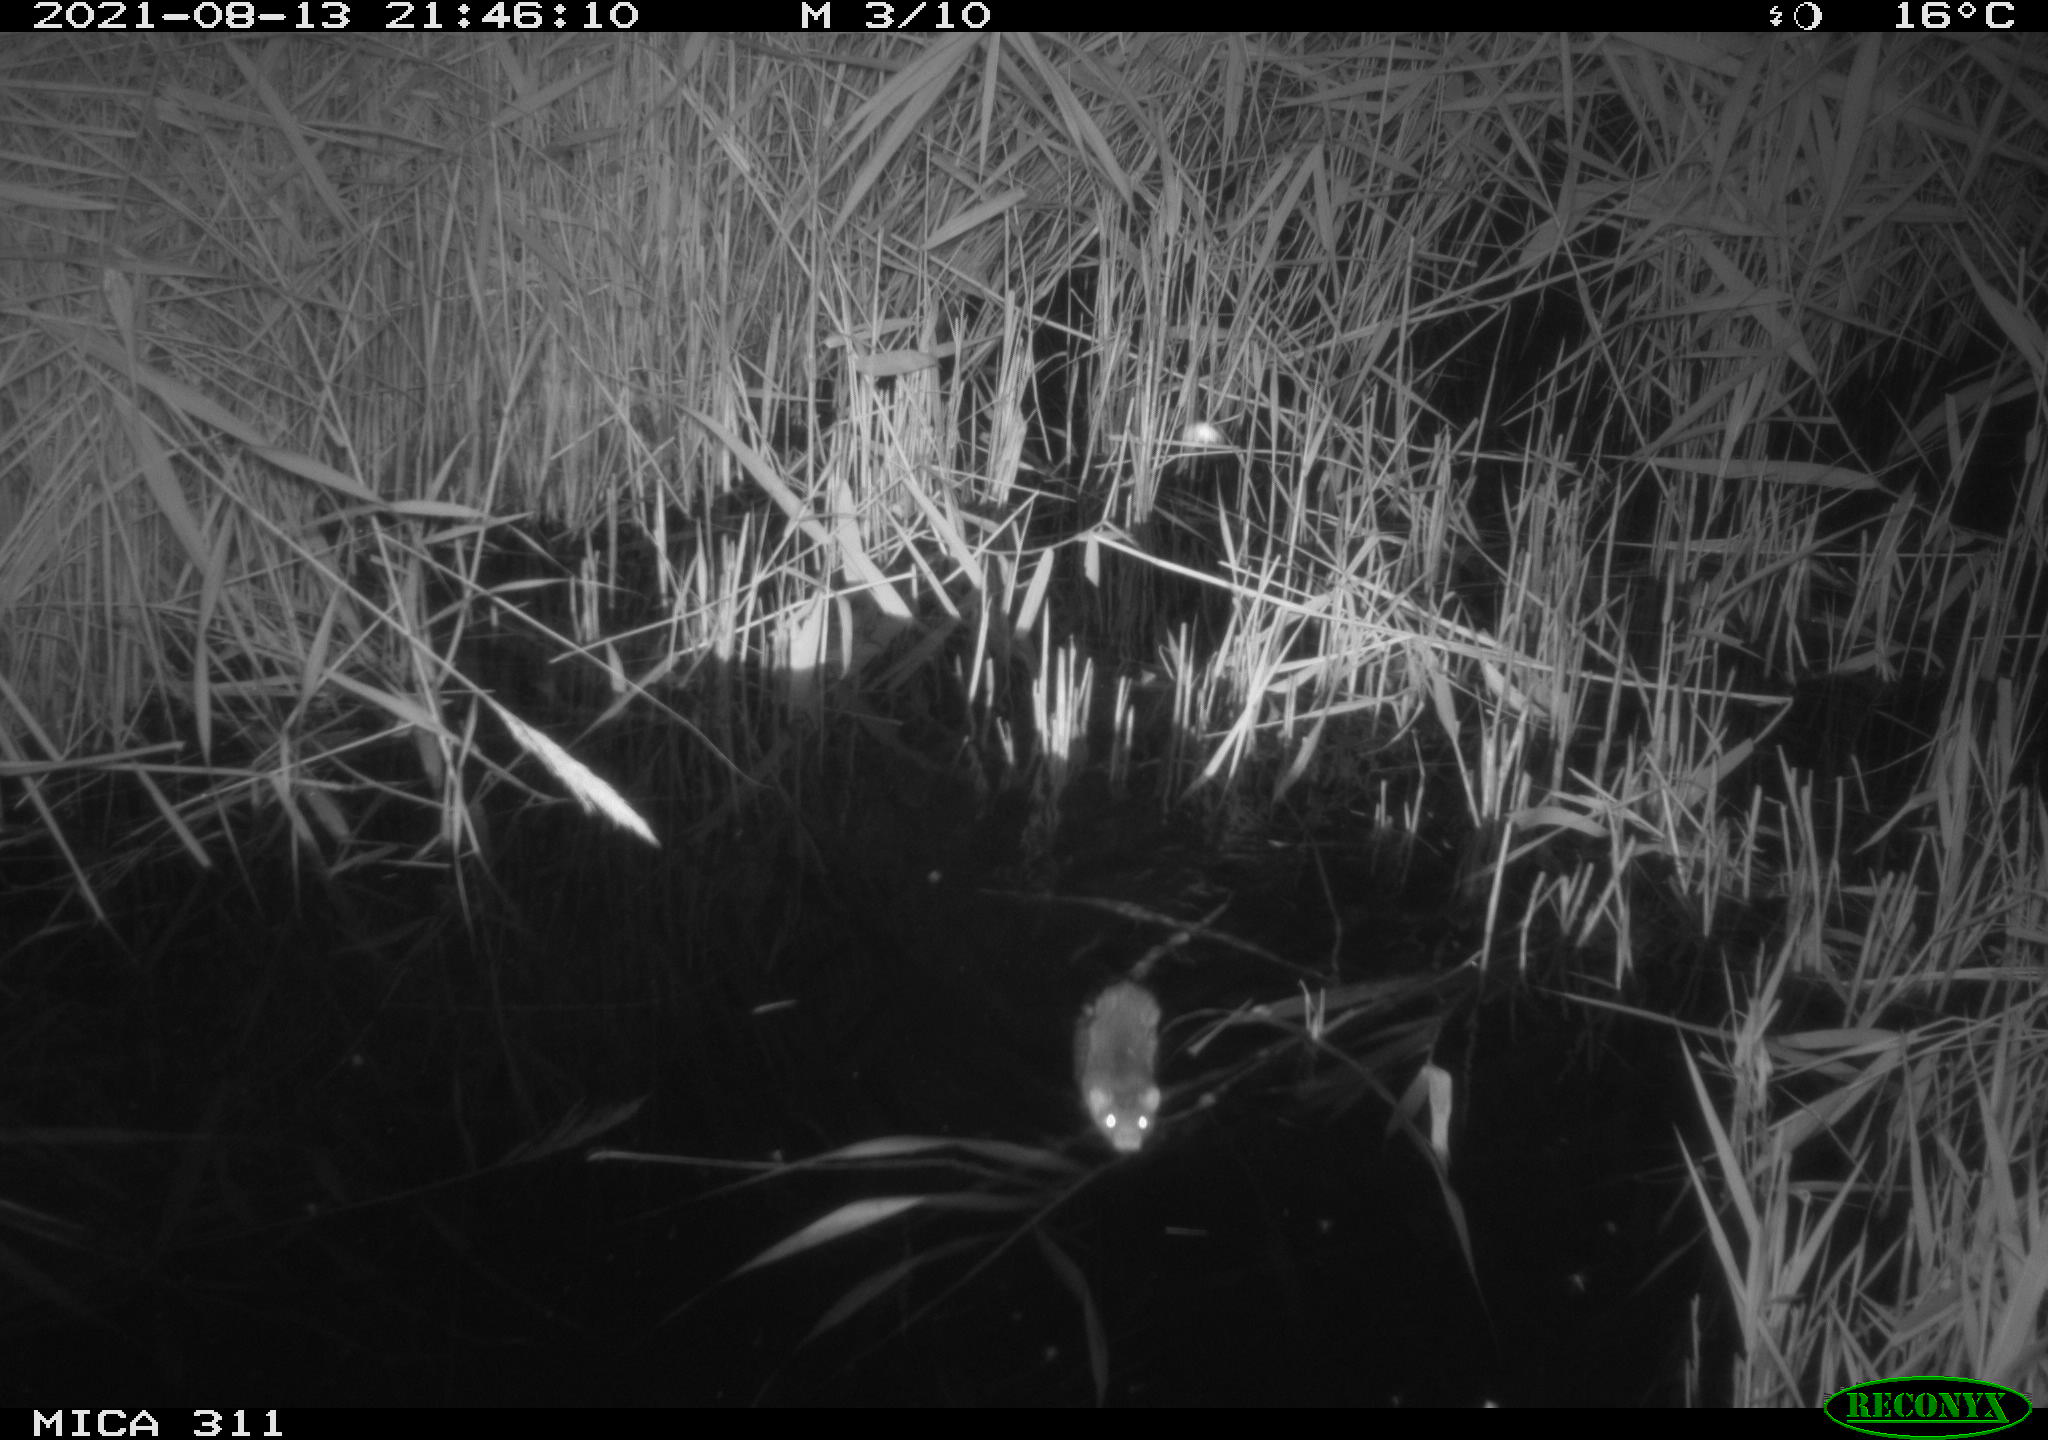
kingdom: Animalia
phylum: Chordata
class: Mammalia
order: Rodentia
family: Muridae
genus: Rattus
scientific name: Rattus norvegicus
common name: Brown rat
